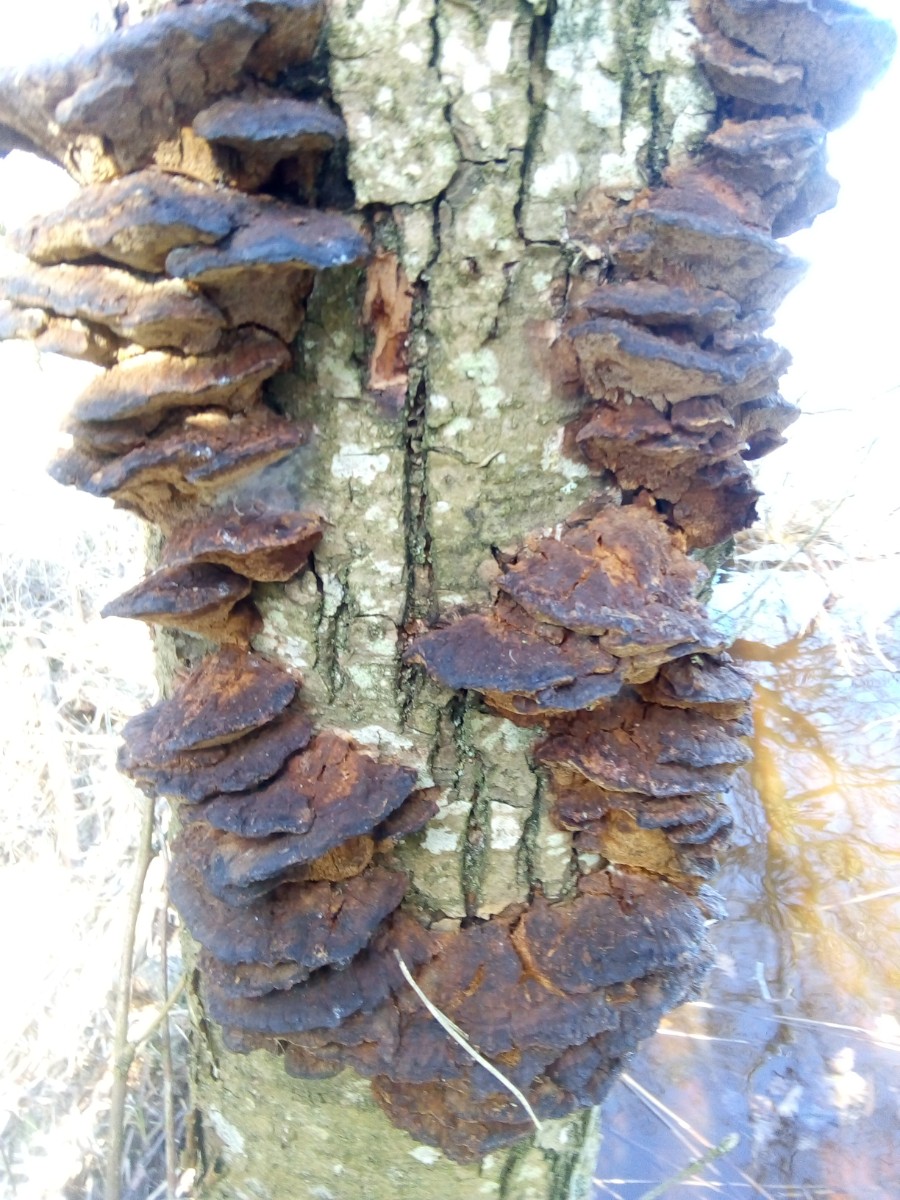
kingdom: Fungi
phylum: Basidiomycota
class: Agaricomycetes
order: Hymenochaetales
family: Hymenochaetaceae
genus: Xanthoporia
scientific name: Xanthoporia radiata
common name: elle-spejlporesvamp
